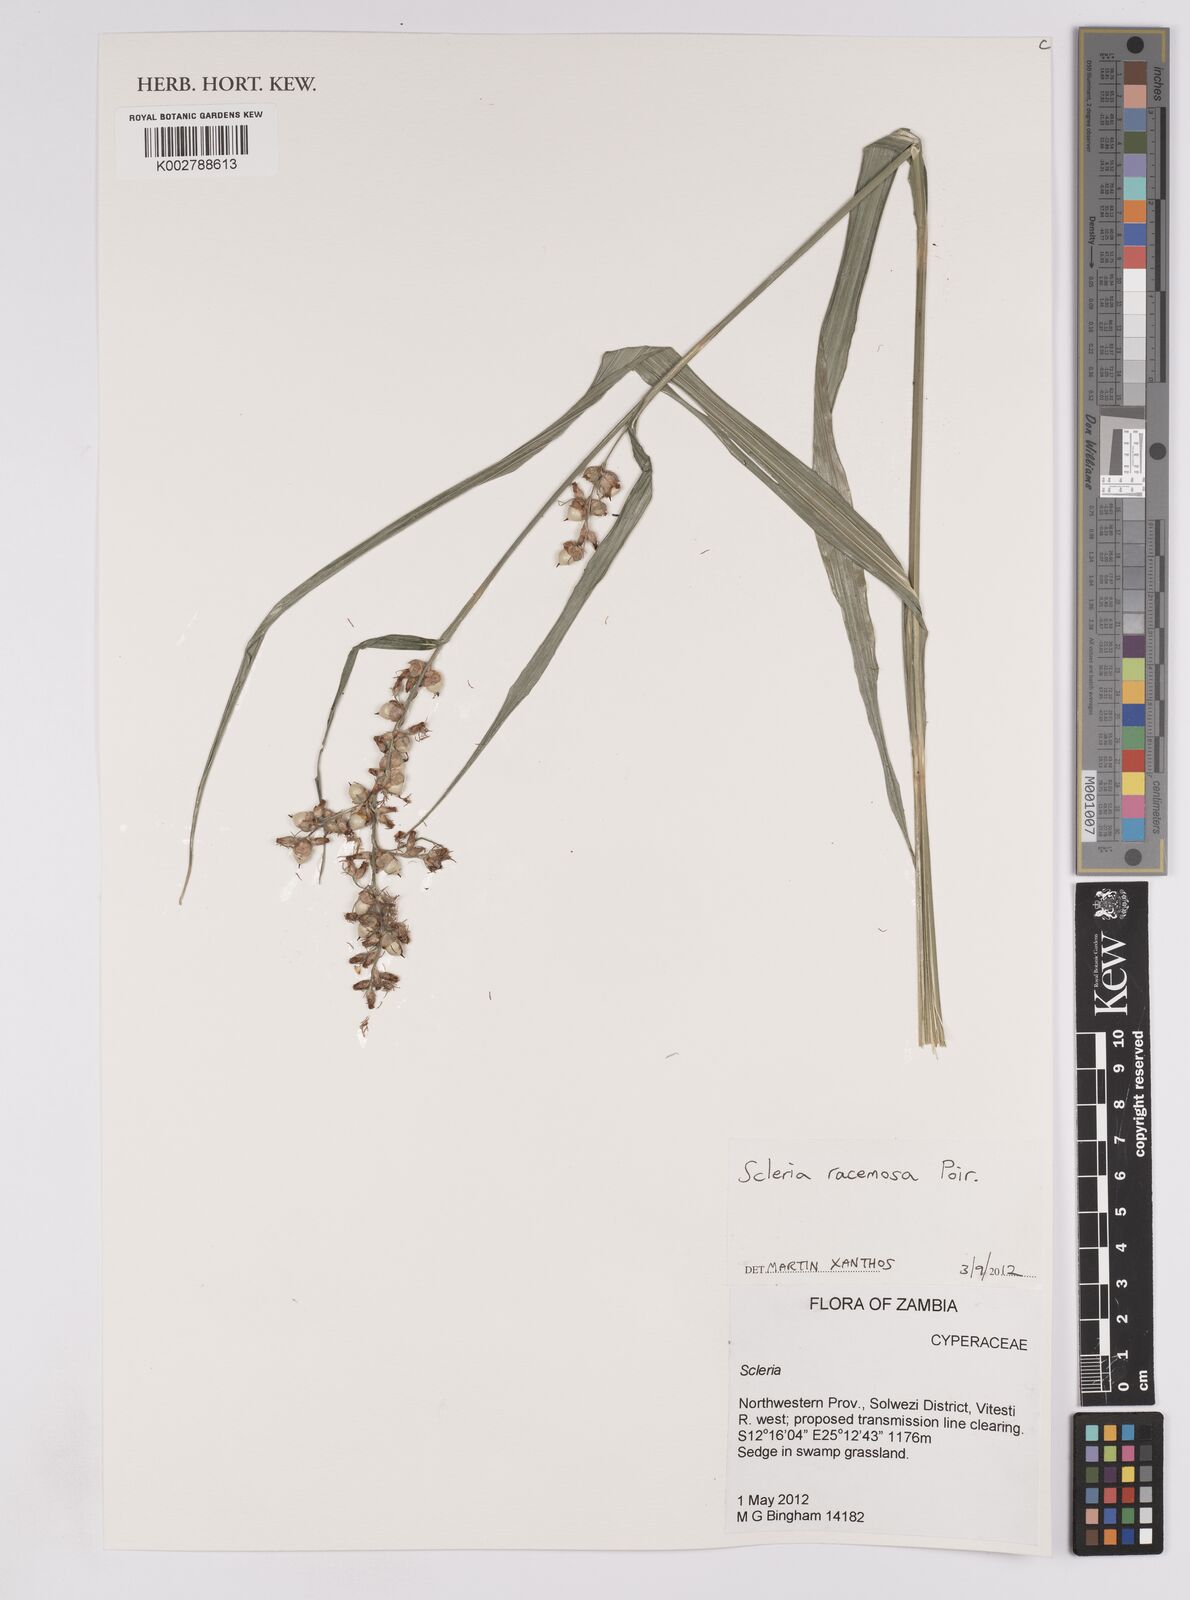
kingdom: Plantae
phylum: Tracheophyta
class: Liliopsida
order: Poales
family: Cyperaceae
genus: Scleria
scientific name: Scleria racemosa
